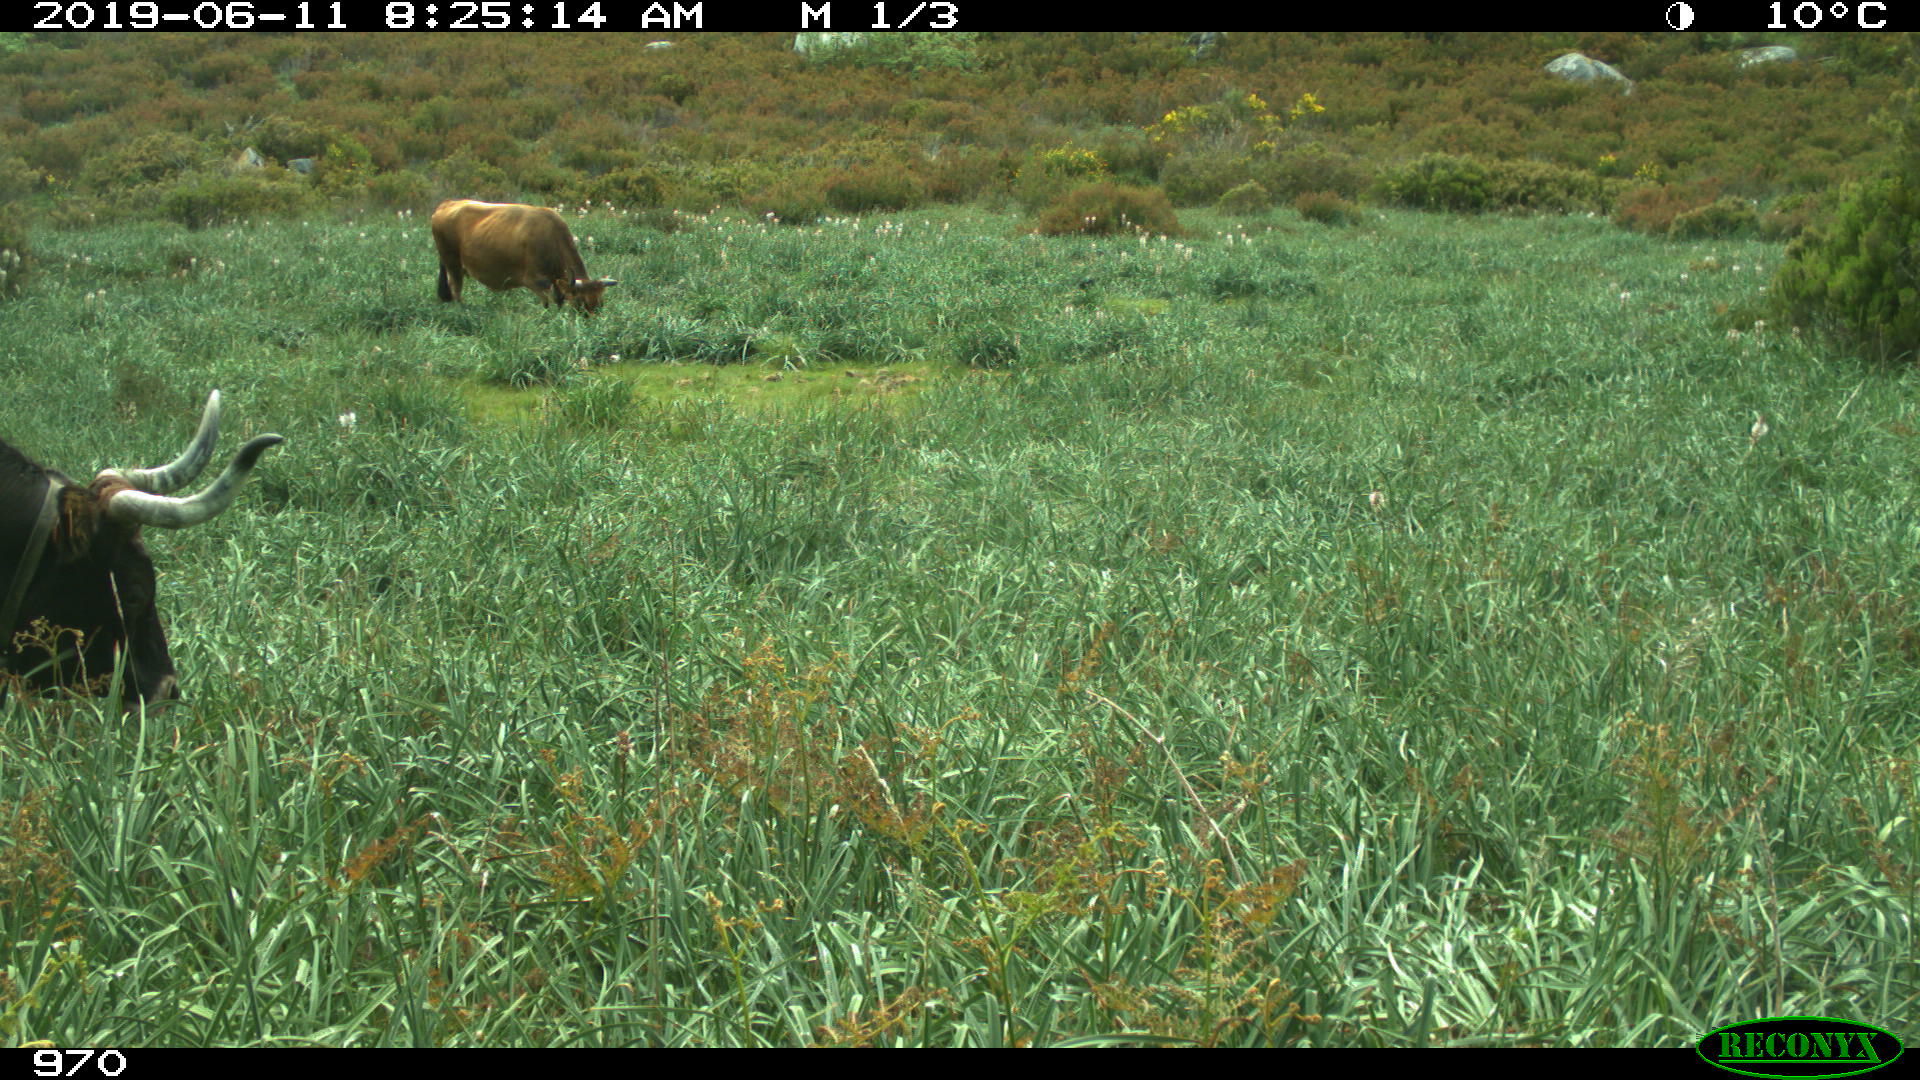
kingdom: Animalia
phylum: Chordata
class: Mammalia
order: Artiodactyla
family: Bovidae
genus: Bos
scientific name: Bos taurus
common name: Domesticated cattle
